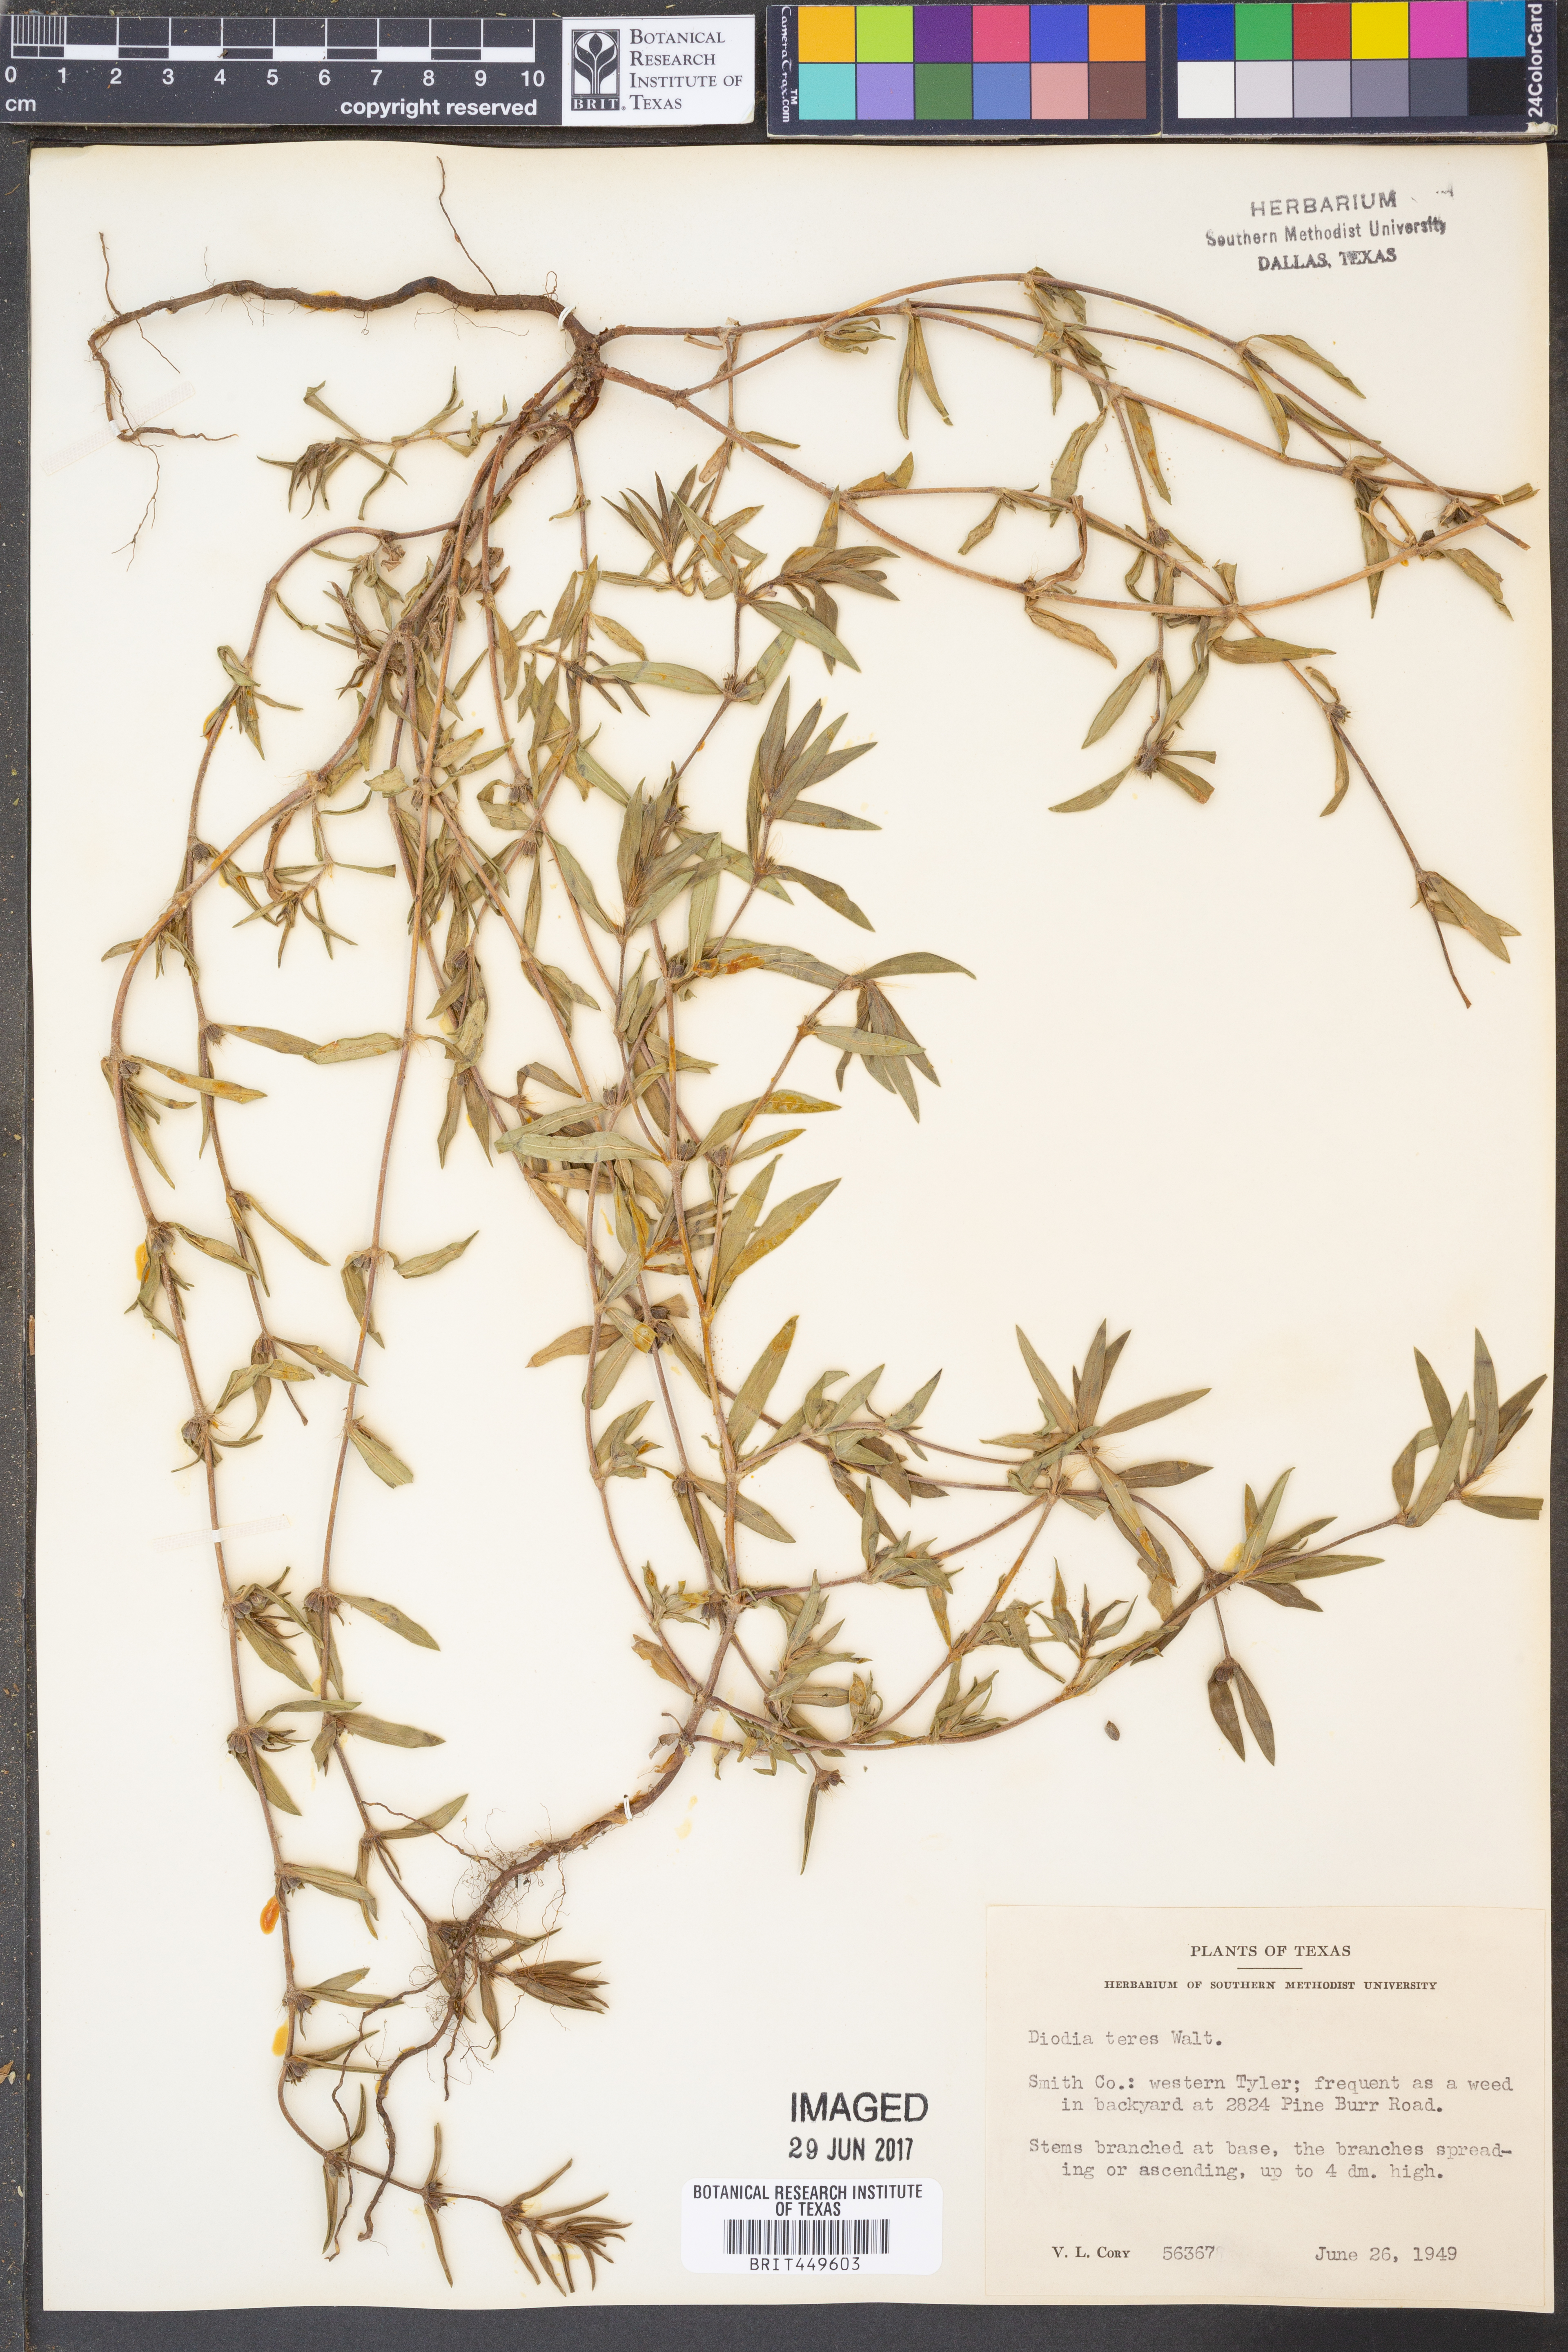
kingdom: Plantae
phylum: Tracheophyta
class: Magnoliopsida
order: Gentianales
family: Rubiaceae
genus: Hexasepalum
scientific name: Hexasepalum teres
